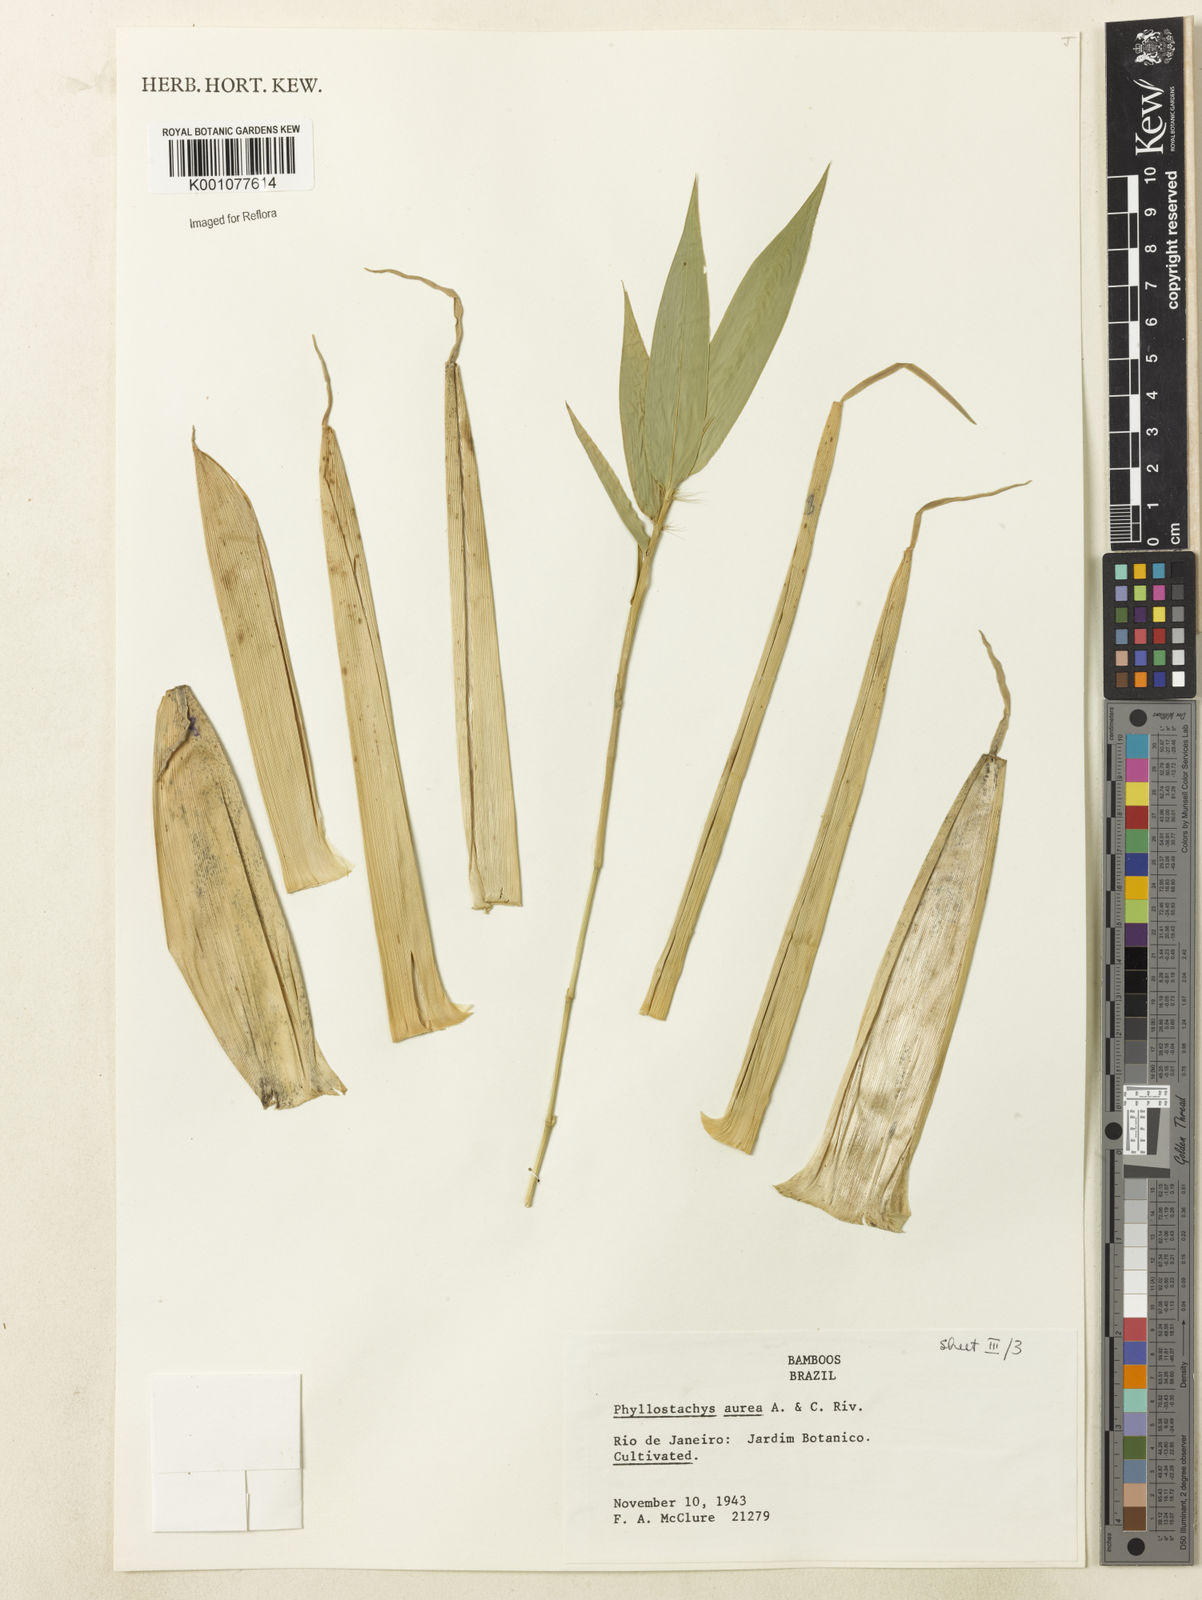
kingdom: Plantae
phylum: Tracheophyta
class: Liliopsida
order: Poales
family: Poaceae
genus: Phyllostachys
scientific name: Phyllostachys
